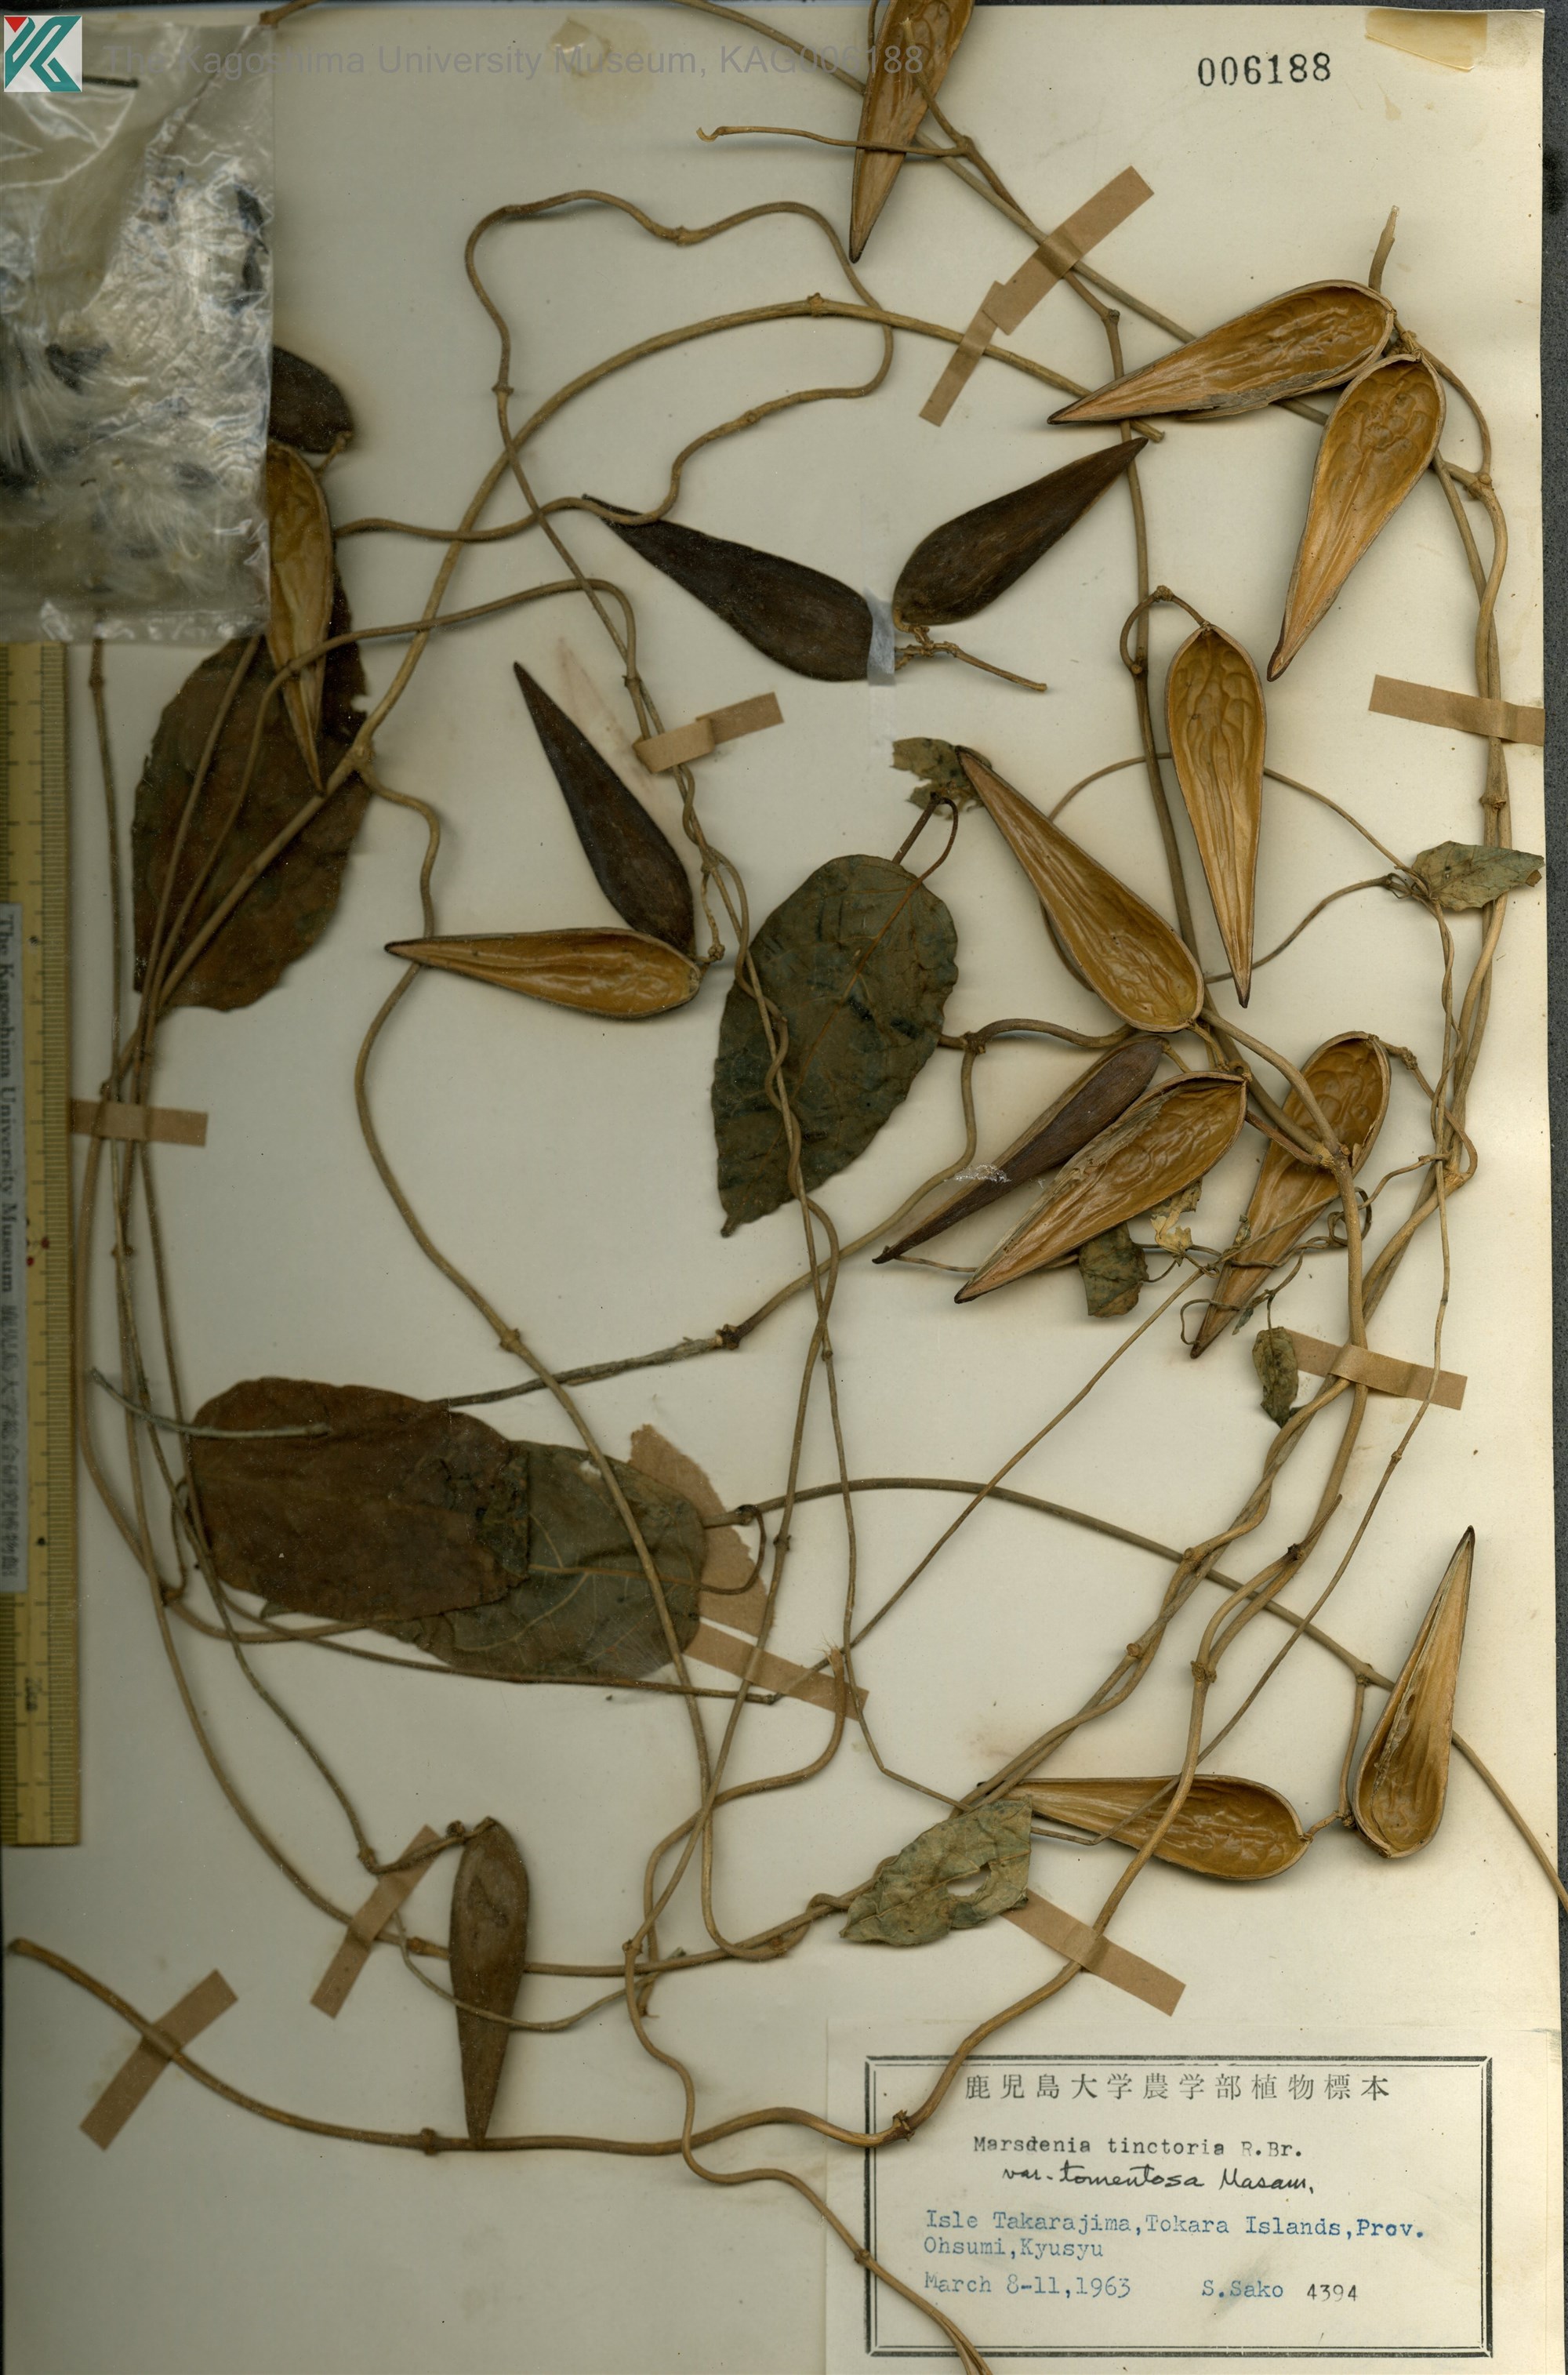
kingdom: Plantae
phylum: Tracheophyta
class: Magnoliopsida
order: Gentianales
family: Apocynaceae
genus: Marsdenia
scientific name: Marsdenia tinctoria
